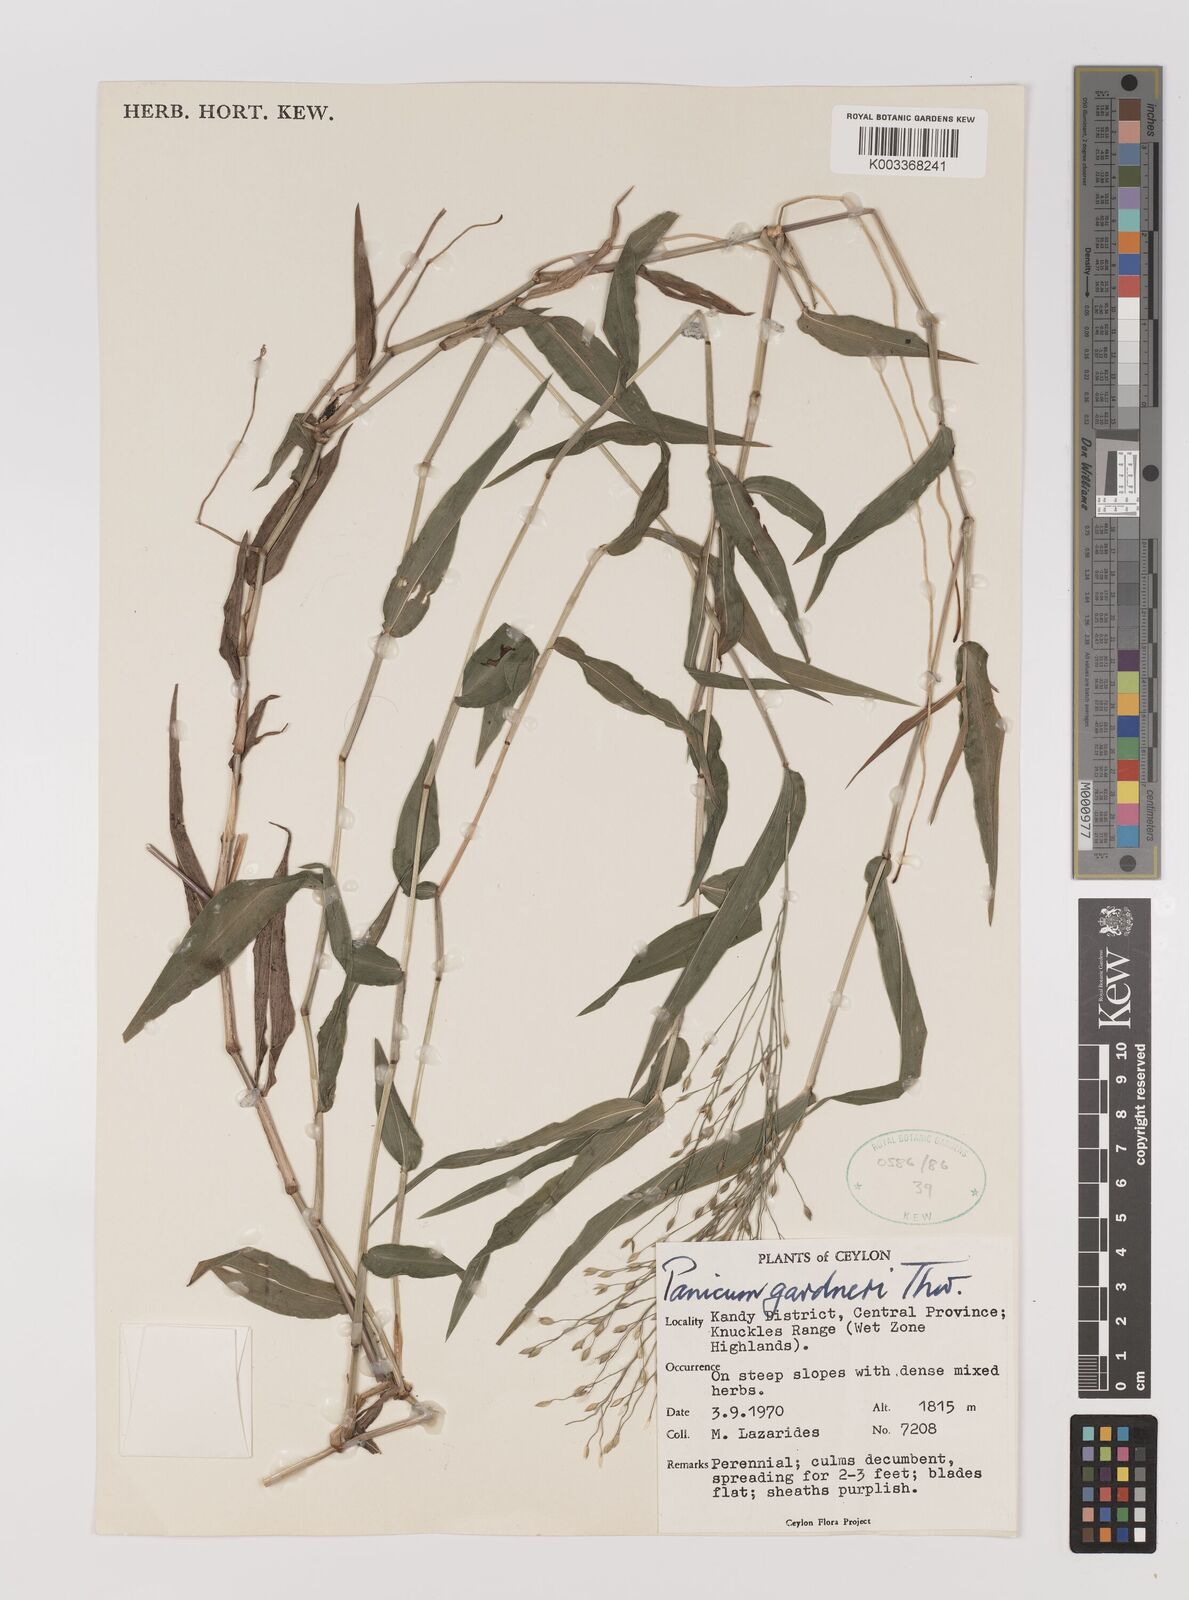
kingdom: Plantae
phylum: Tracheophyta
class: Liliopsida
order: Poales
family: Poaceae
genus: Panicum
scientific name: Panicum gardneri
